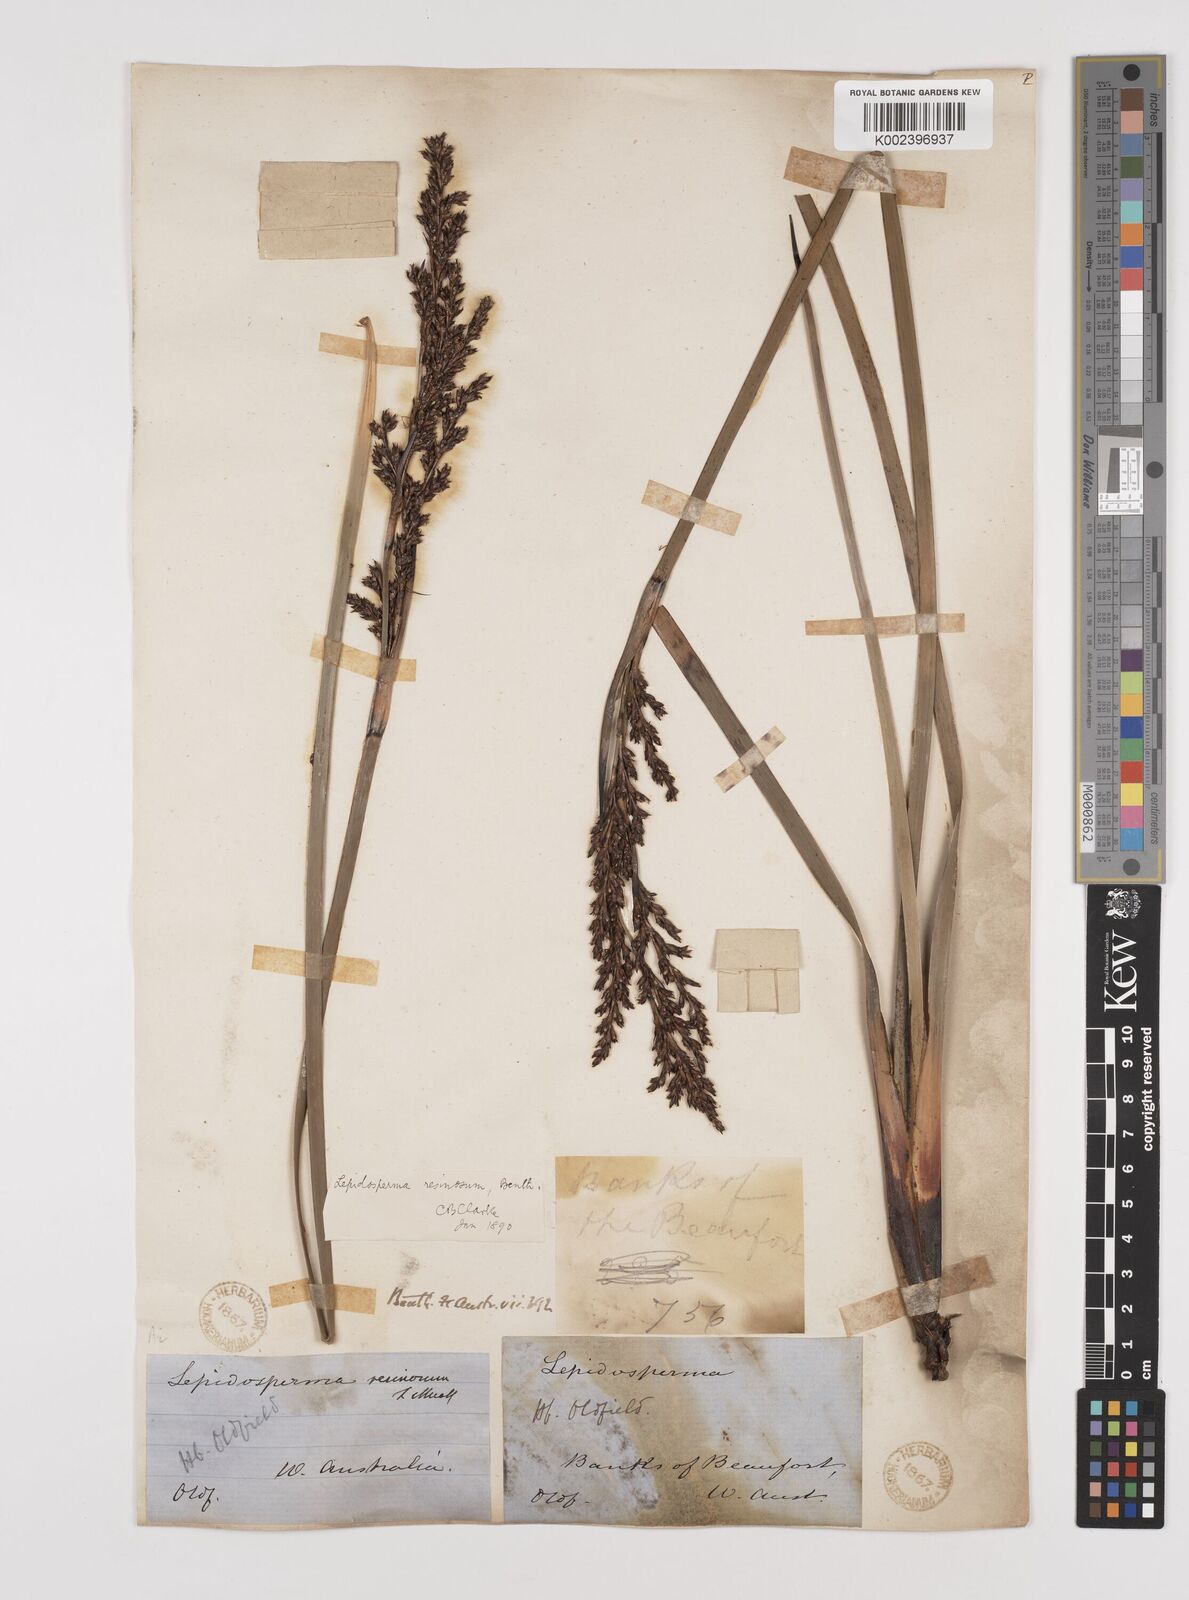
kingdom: Plantae
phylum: Tracheophyta
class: Liliopsida
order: Poales
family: Cyperaceae
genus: Lepidosperma
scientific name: Lepidosperma resinosum
